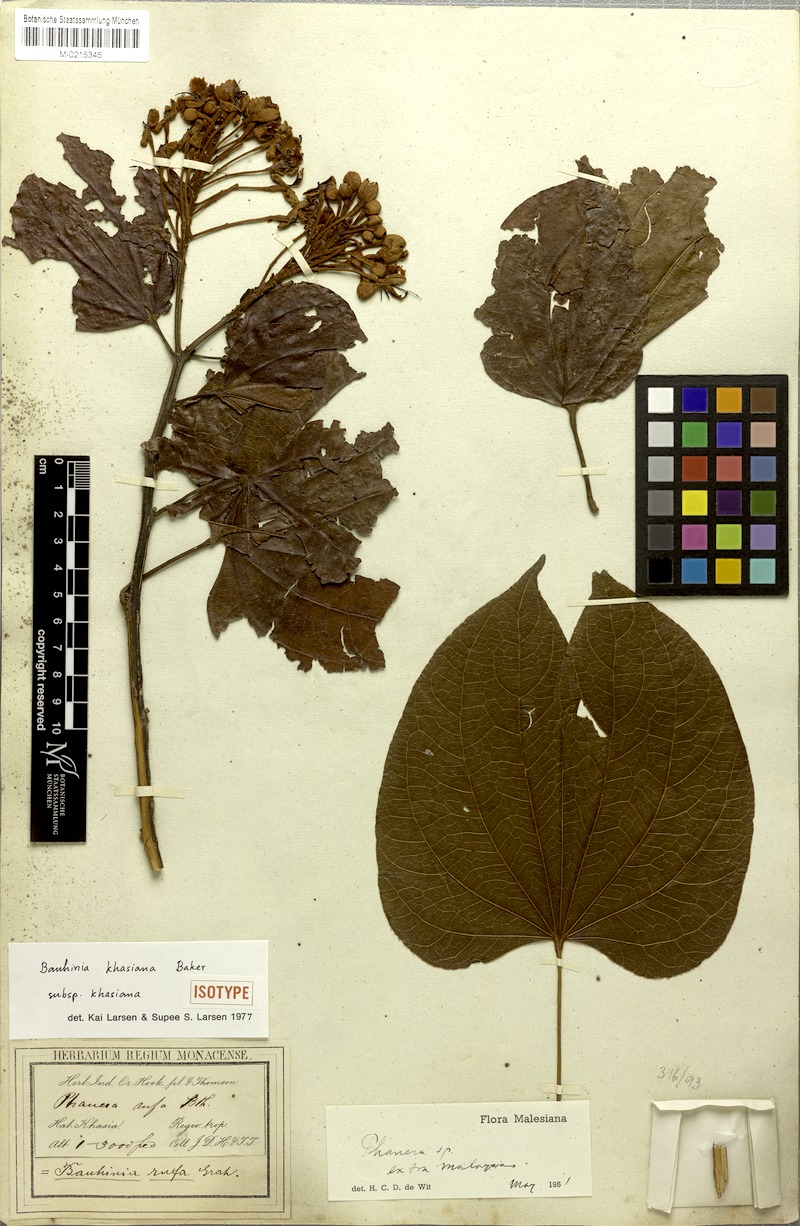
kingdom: Plantae
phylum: Tracheophyta
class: Magnoliopsida
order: Fabales
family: Fabaceae
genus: Phanera
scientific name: Phanera khasiana
